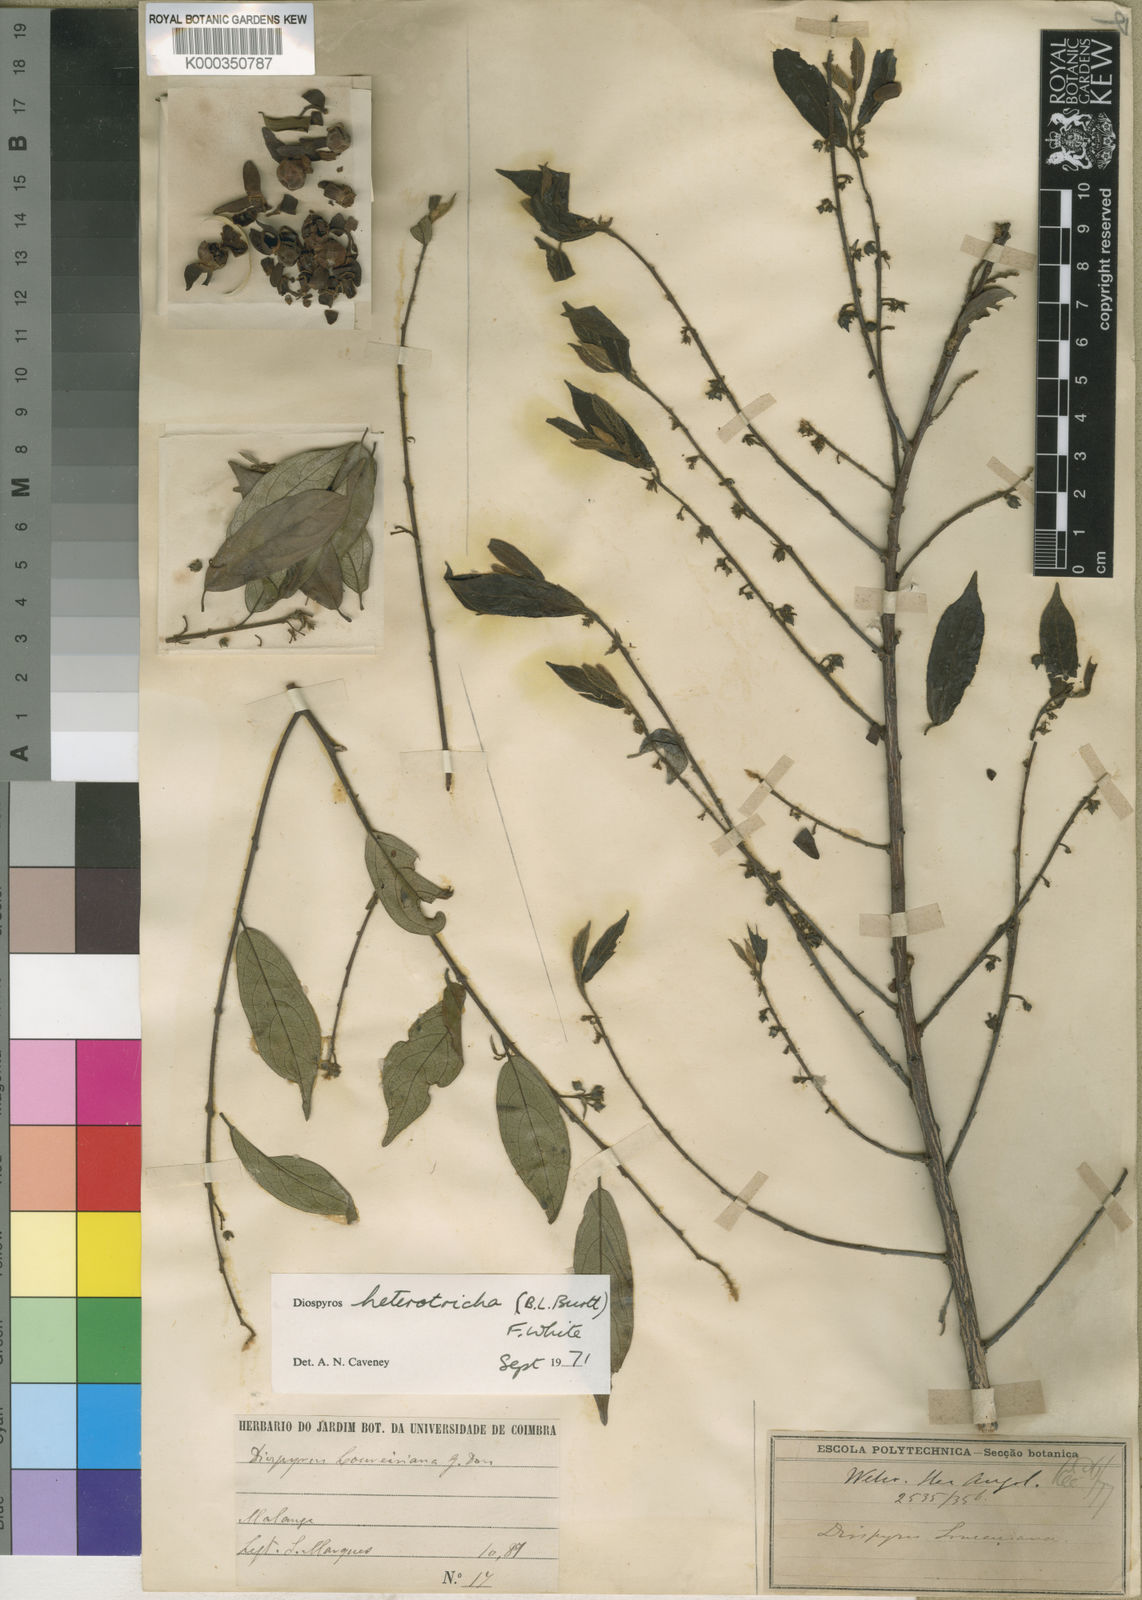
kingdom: Plantae
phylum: Tracheophyta
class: Magnoliopsida
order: Ericales
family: Ebenaceae
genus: Diospyros
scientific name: Diospyros heterotricha
